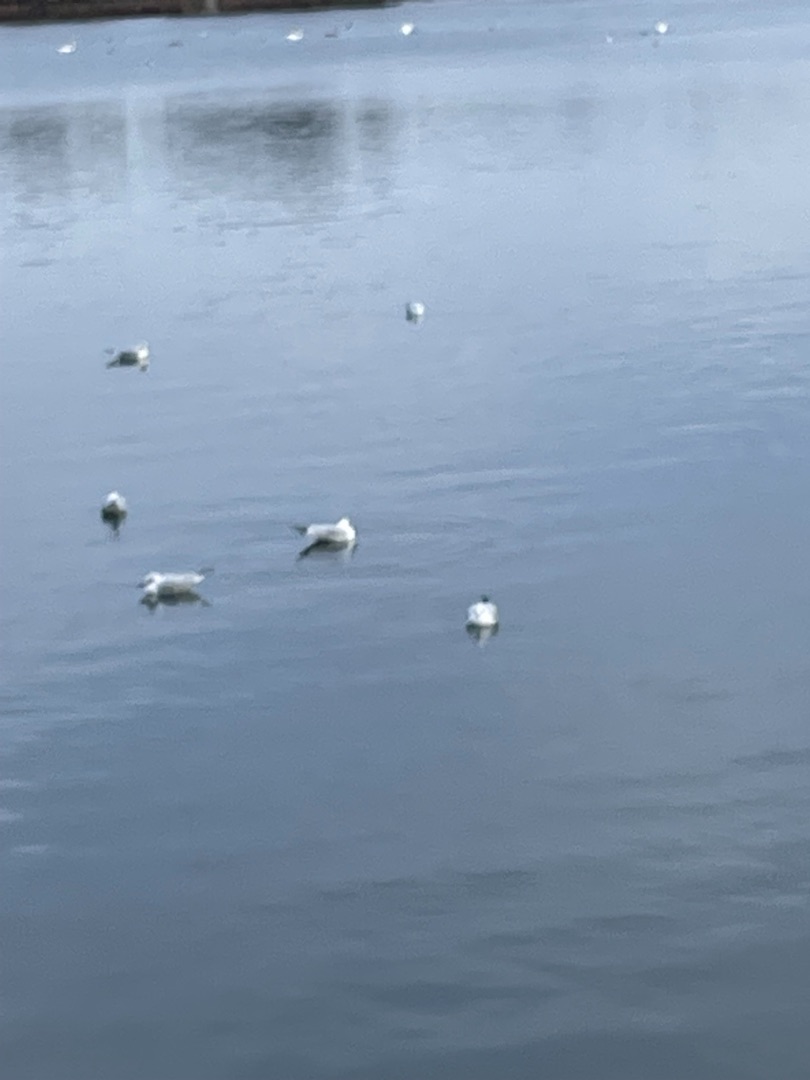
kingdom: Animalia
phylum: Chordata
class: Aves
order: Charadriiformes
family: Laridae
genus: Chroicocephalus
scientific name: Chroicocephalus ridibundus
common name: Hættemåge
